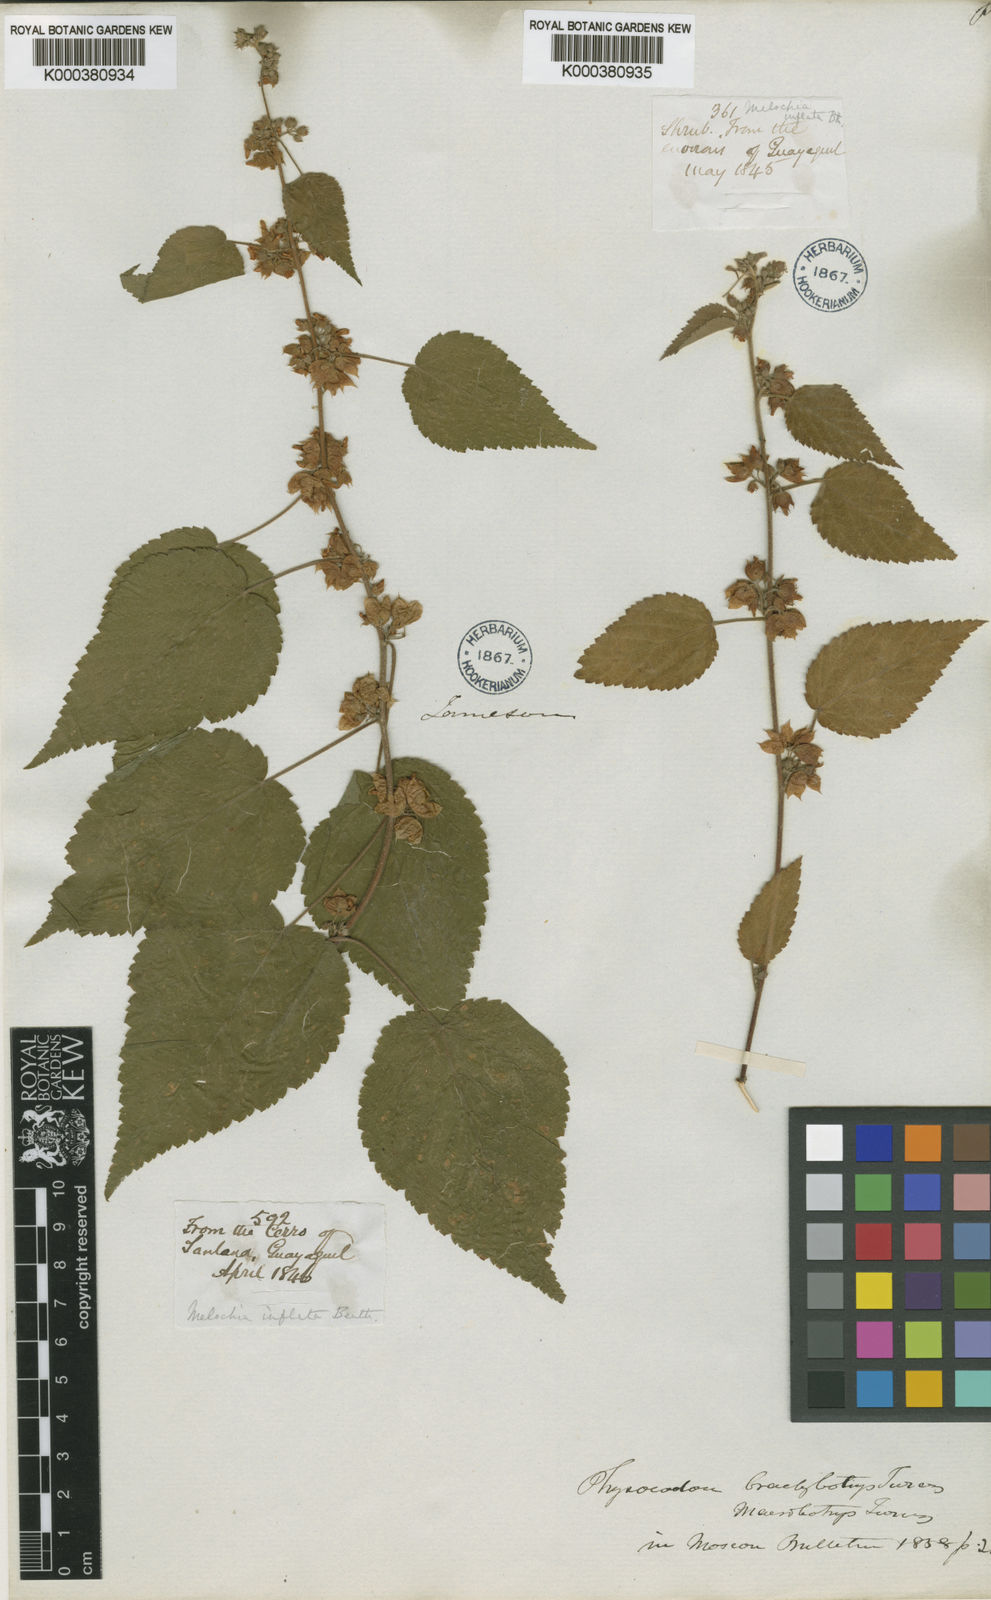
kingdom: Plantae
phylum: Tracheophyta
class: Magnoliopsida
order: Malvales
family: Malvaceae
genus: Melochia
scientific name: Melochia lupulina
